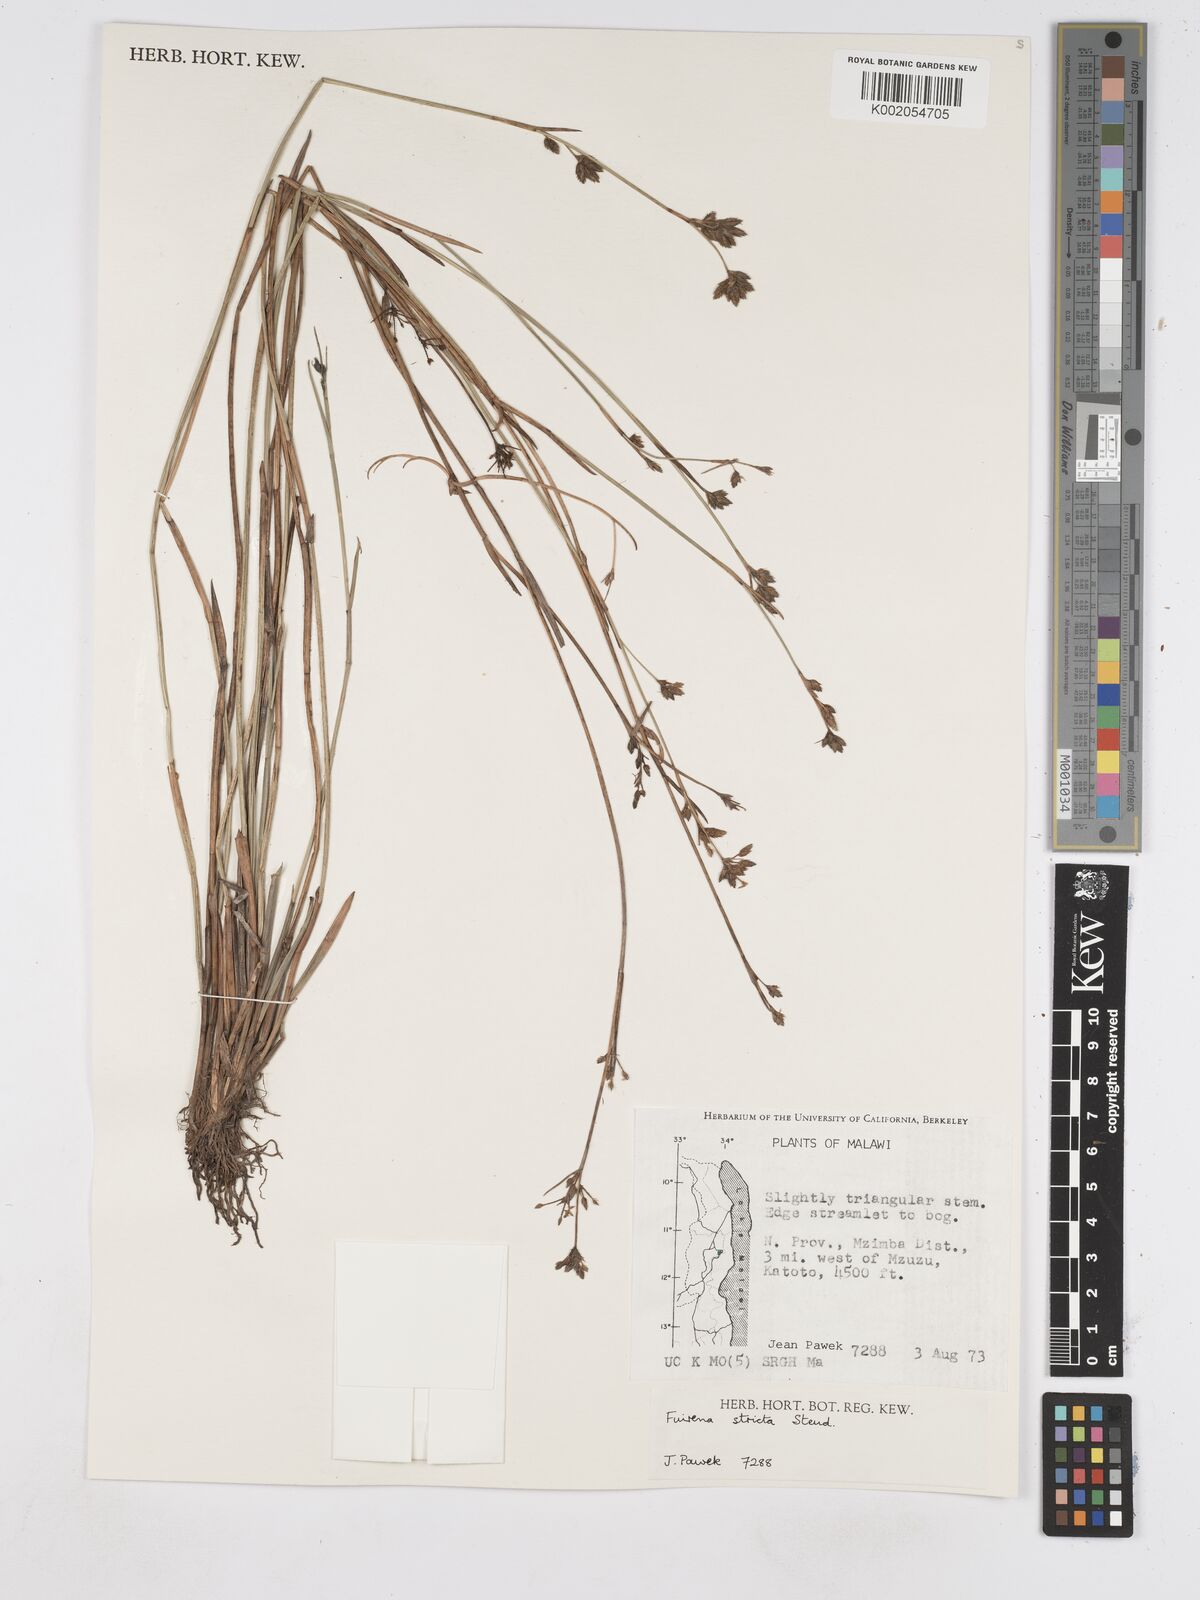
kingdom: Plantae
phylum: Tracheophyta
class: Liliopsida
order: Poales
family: Cyperaceae
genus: Fuirena
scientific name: Fuirena stricta
